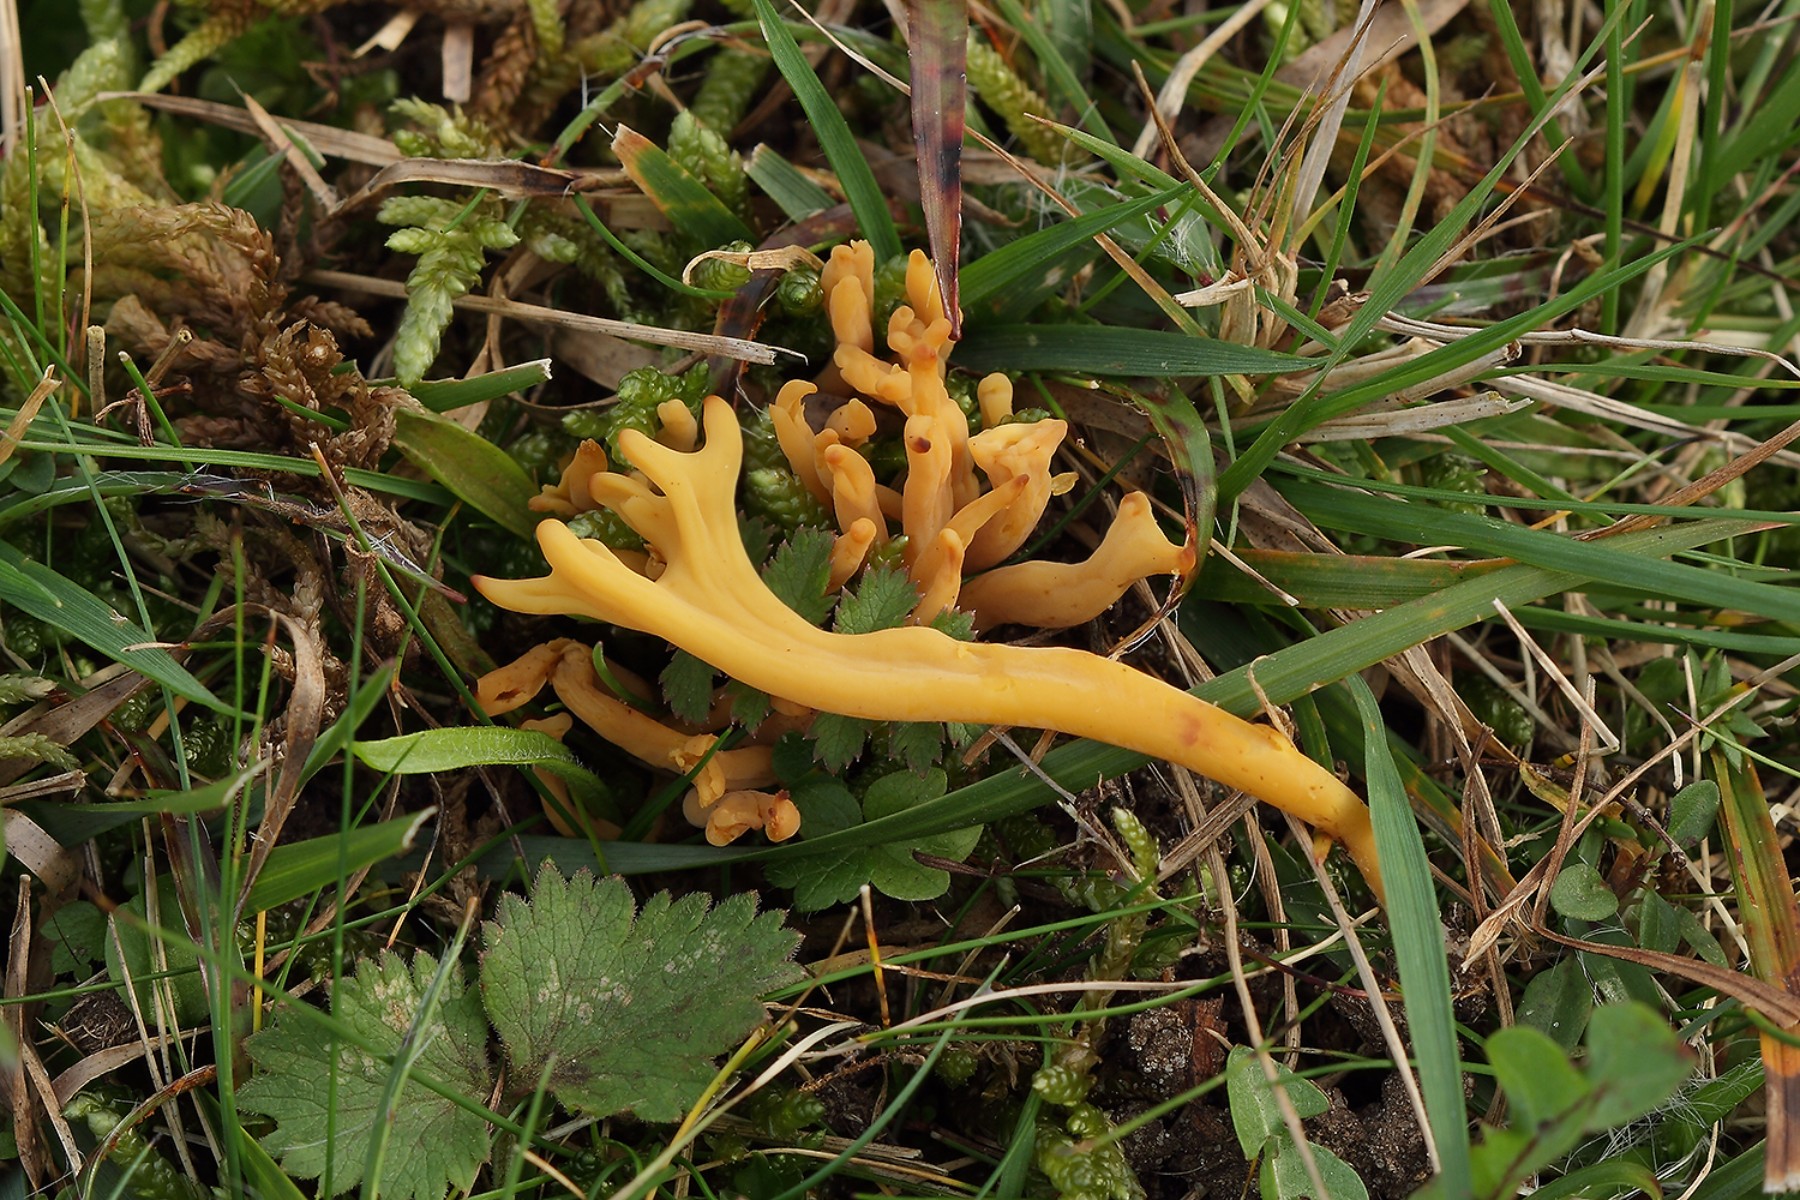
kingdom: Fungi
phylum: Basidiomycota
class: Agaricomycetes
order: Agaricales
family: Clavariaceae
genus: Clavulinopsis
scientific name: Clavulinopsis corniculata
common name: eng-køllesvamp
